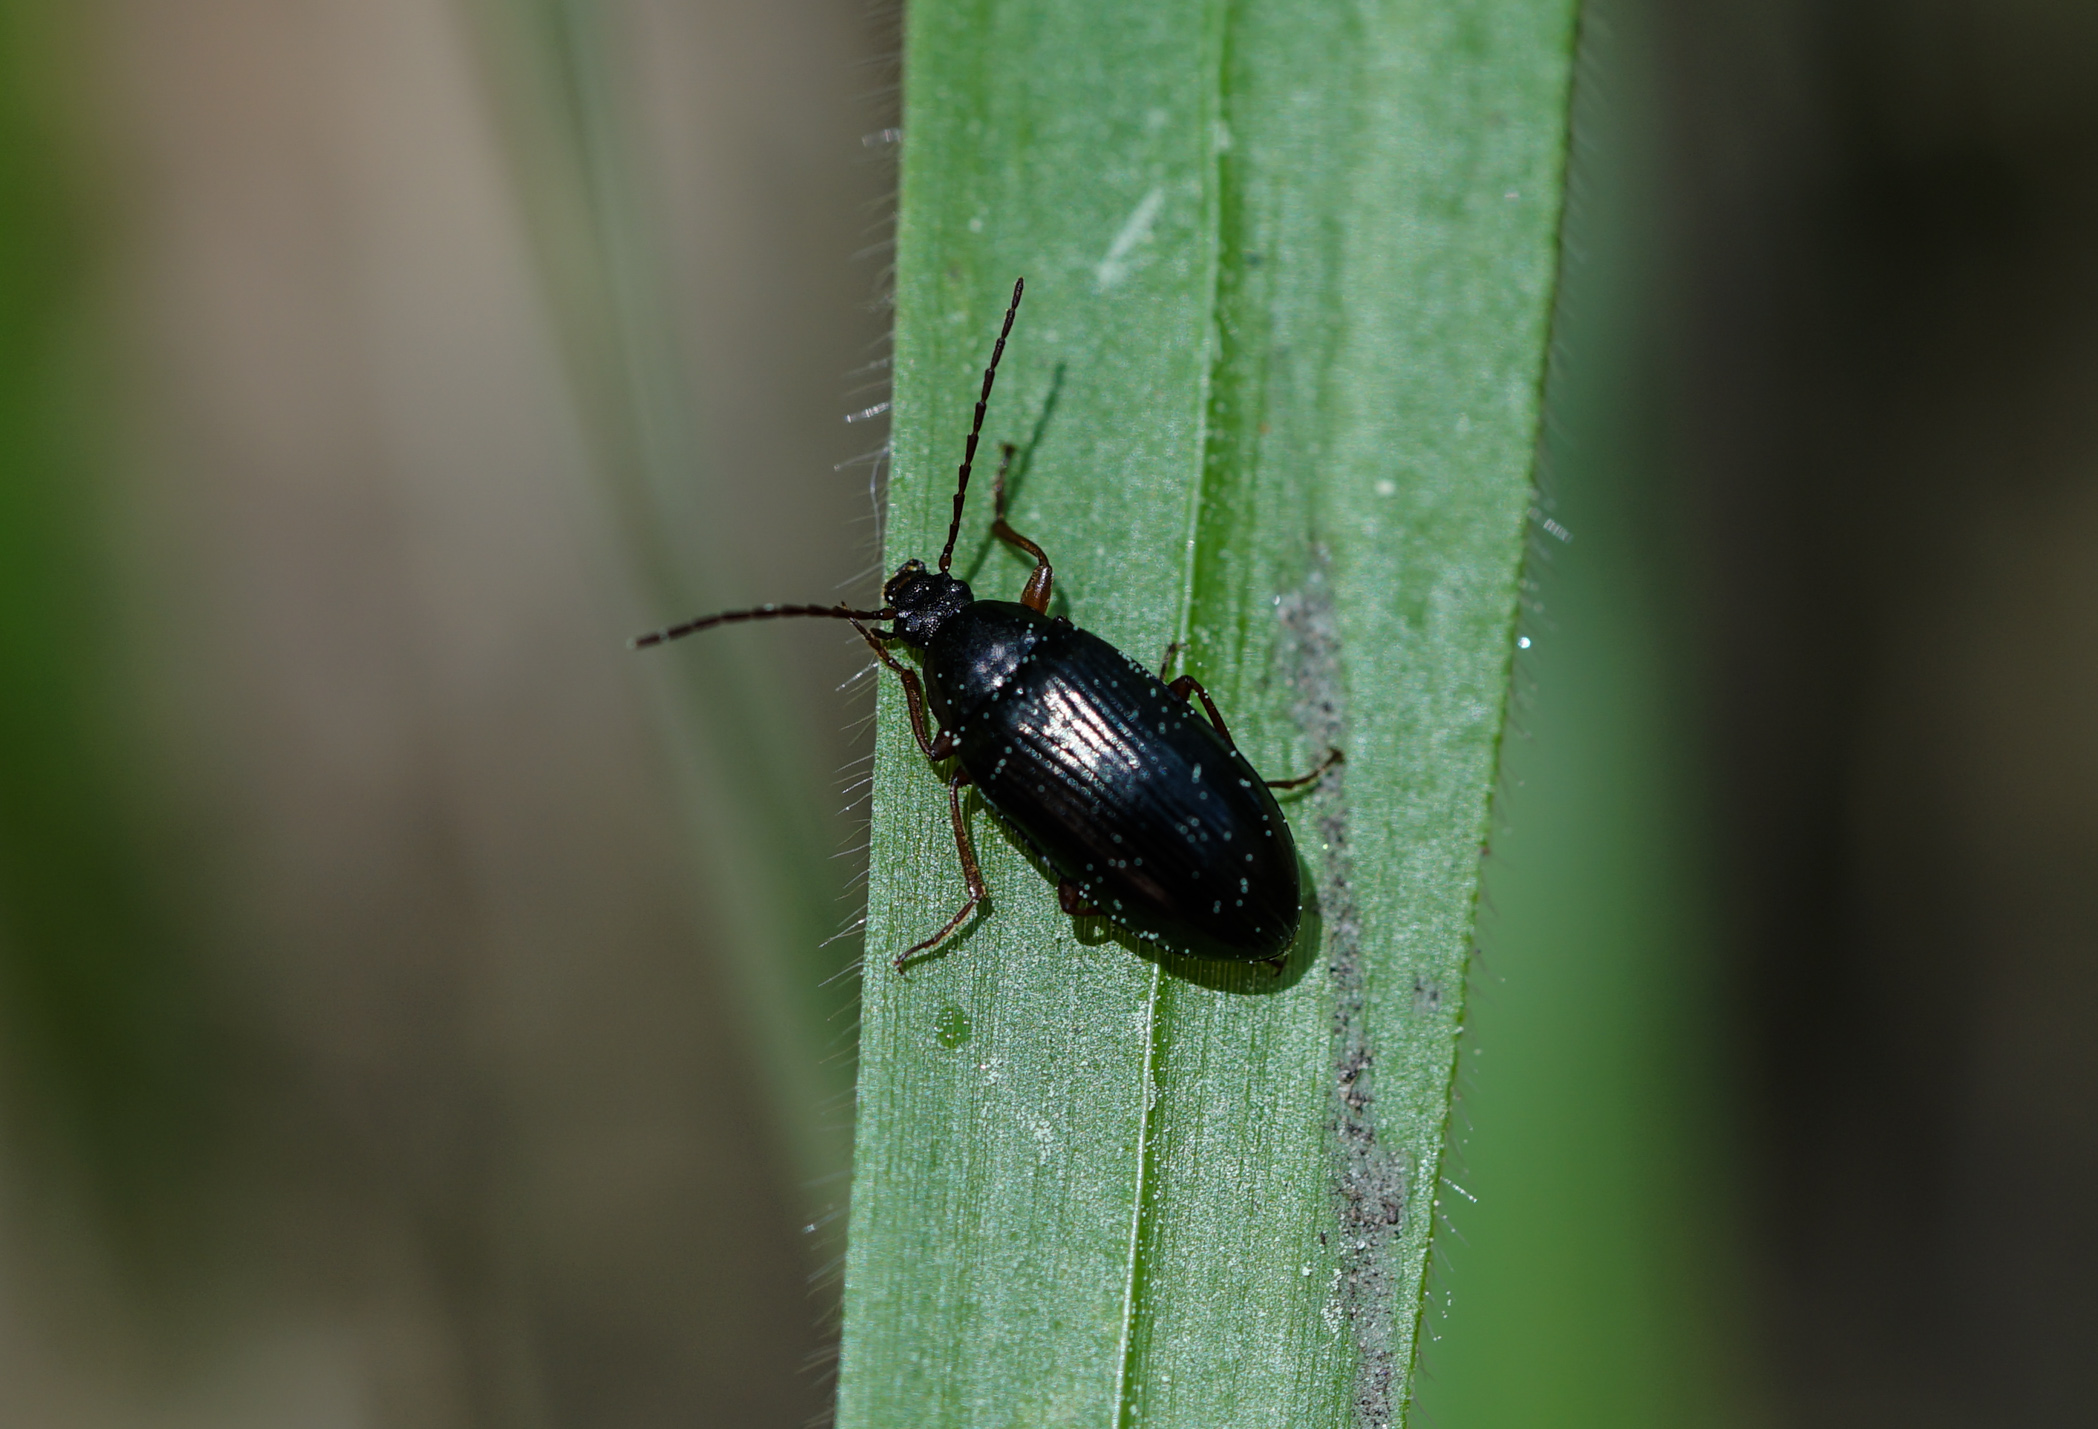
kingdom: Animalia
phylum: Arthropoda
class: Insecta
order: Coleoptera
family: Tenebrionidae
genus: Gonodera
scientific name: Gonodera luperus
